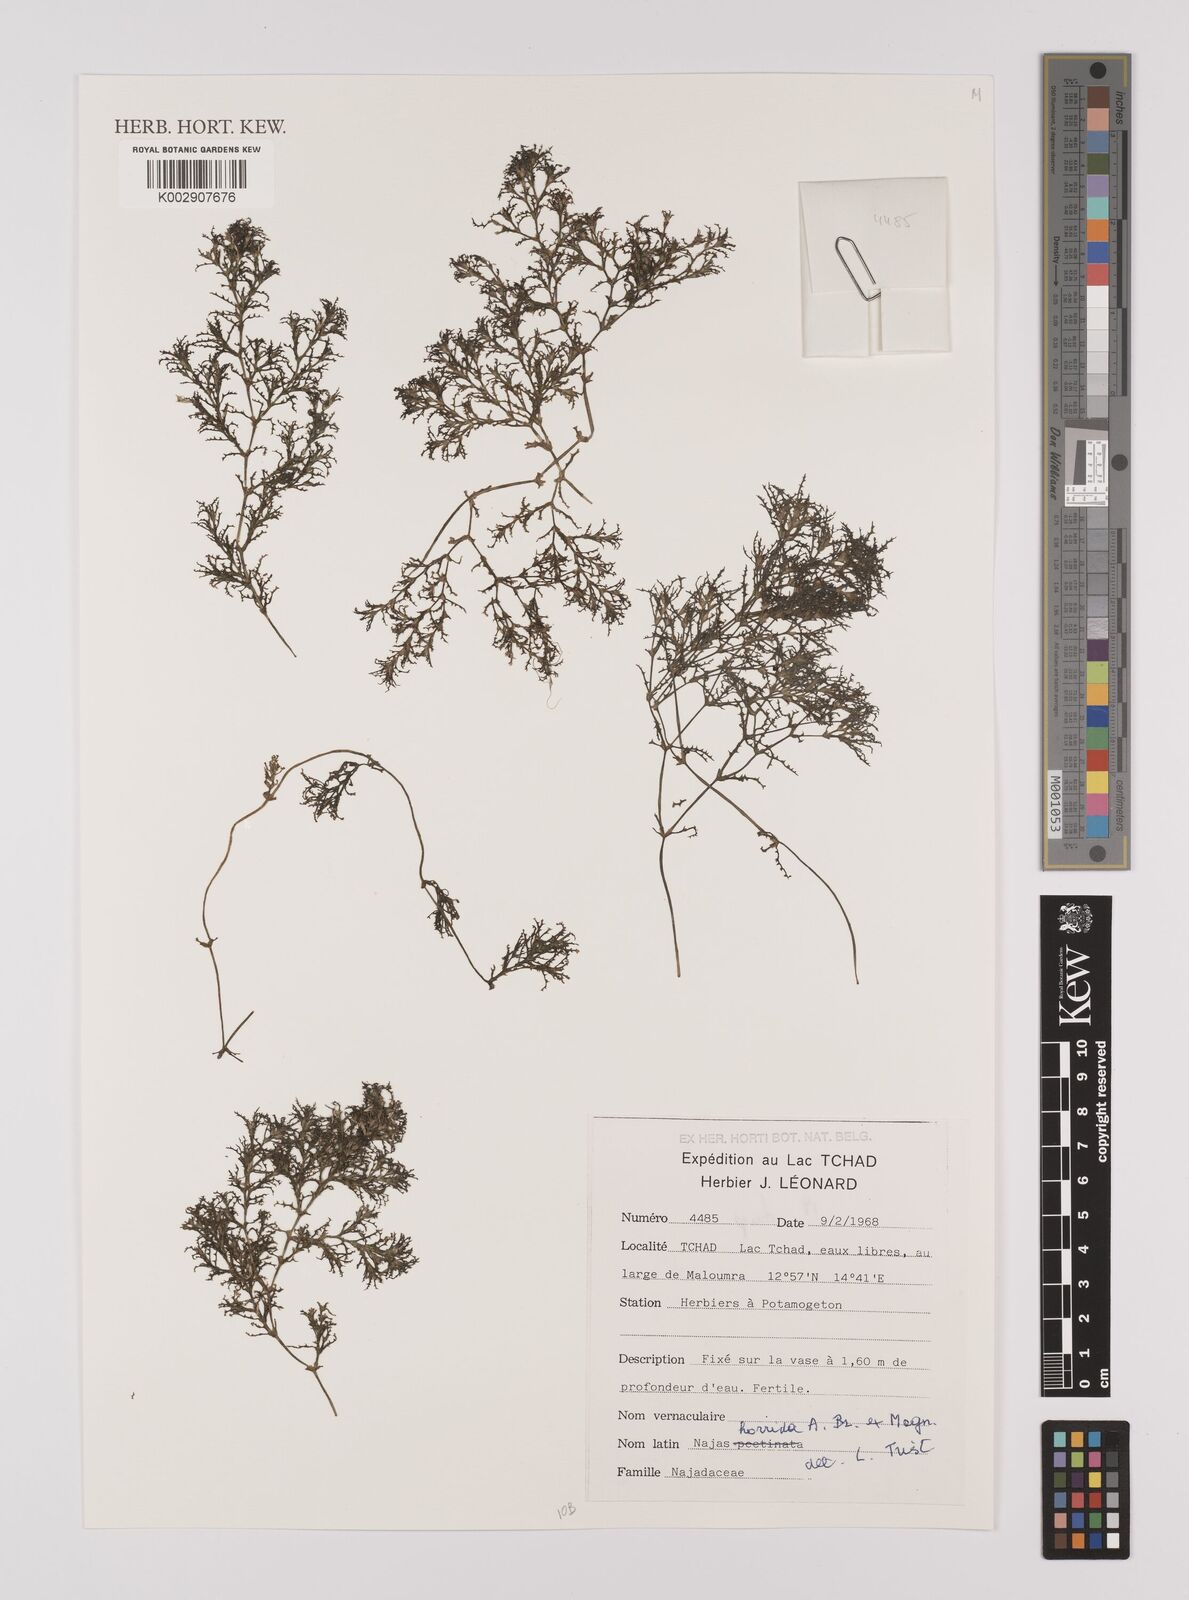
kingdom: Plantae
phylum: Tracheophyta
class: Liliopsida
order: Alismatales
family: Hydrocharitaceae
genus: Najas
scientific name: Najas horrida
